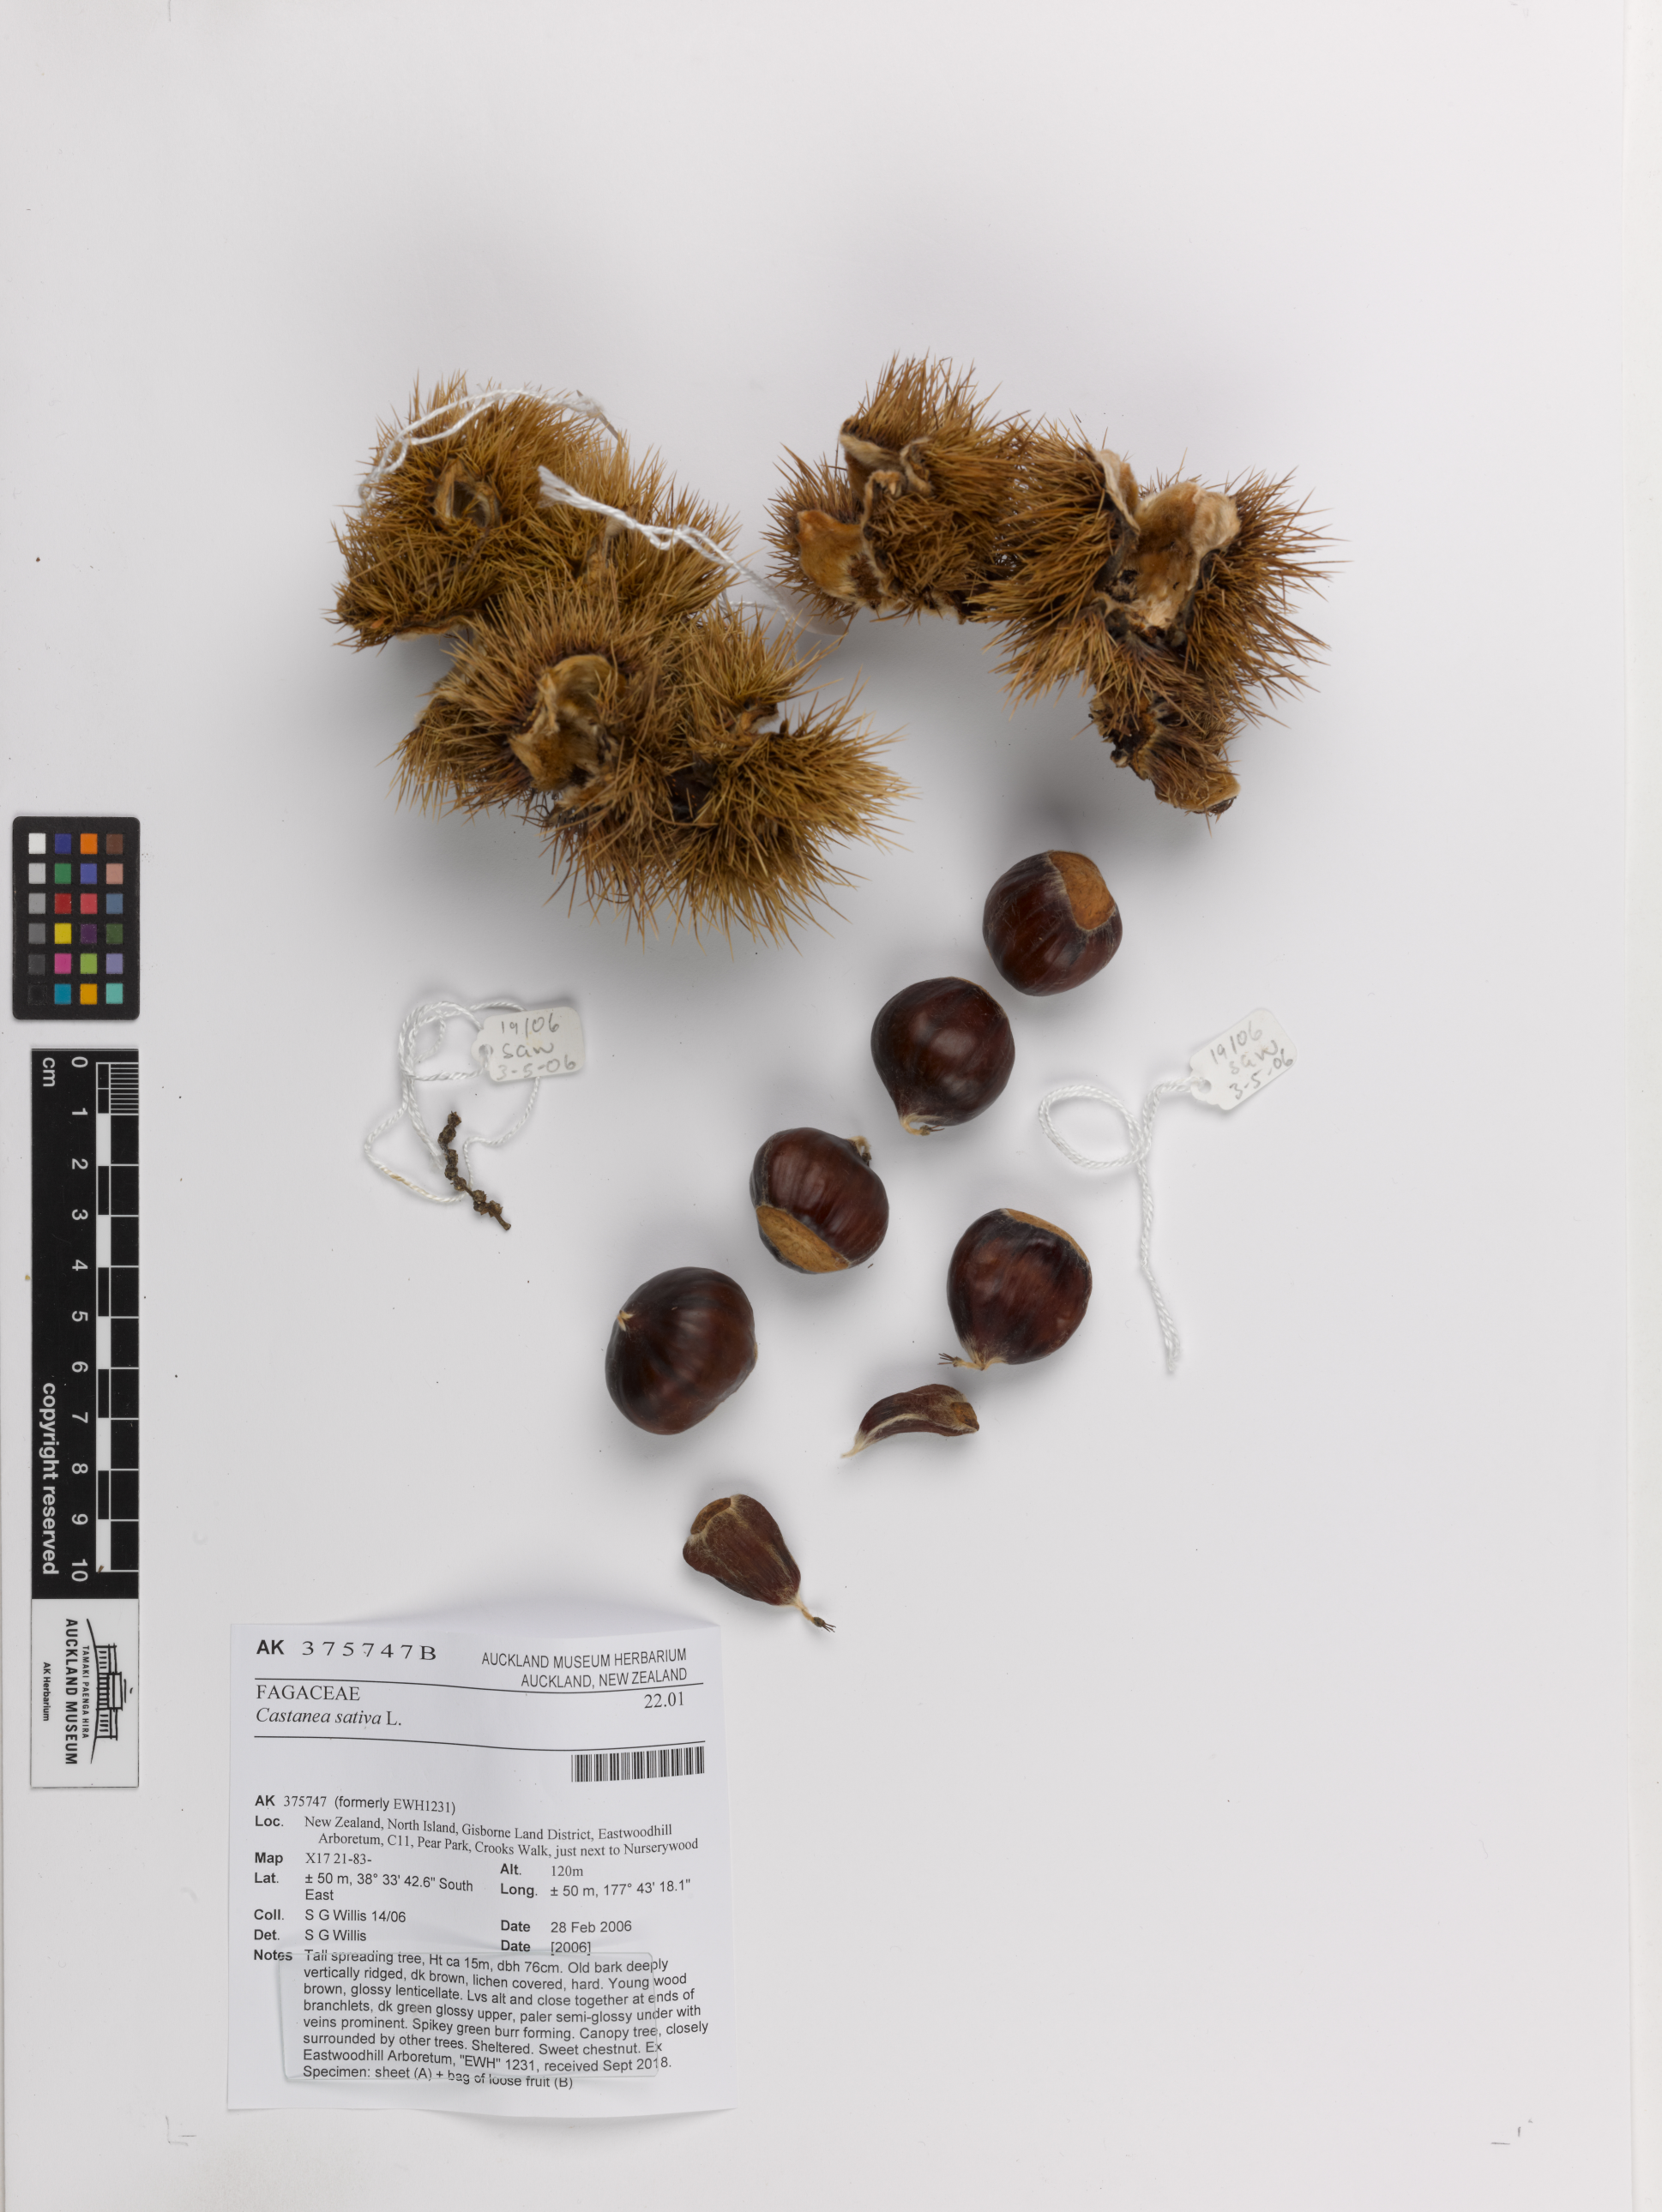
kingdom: Plantae
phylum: Tracheophyta
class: Magnoliopsida
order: Fagales
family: Fagaceae
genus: Castanea
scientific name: Castanea sativa
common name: Sweet chestnut
